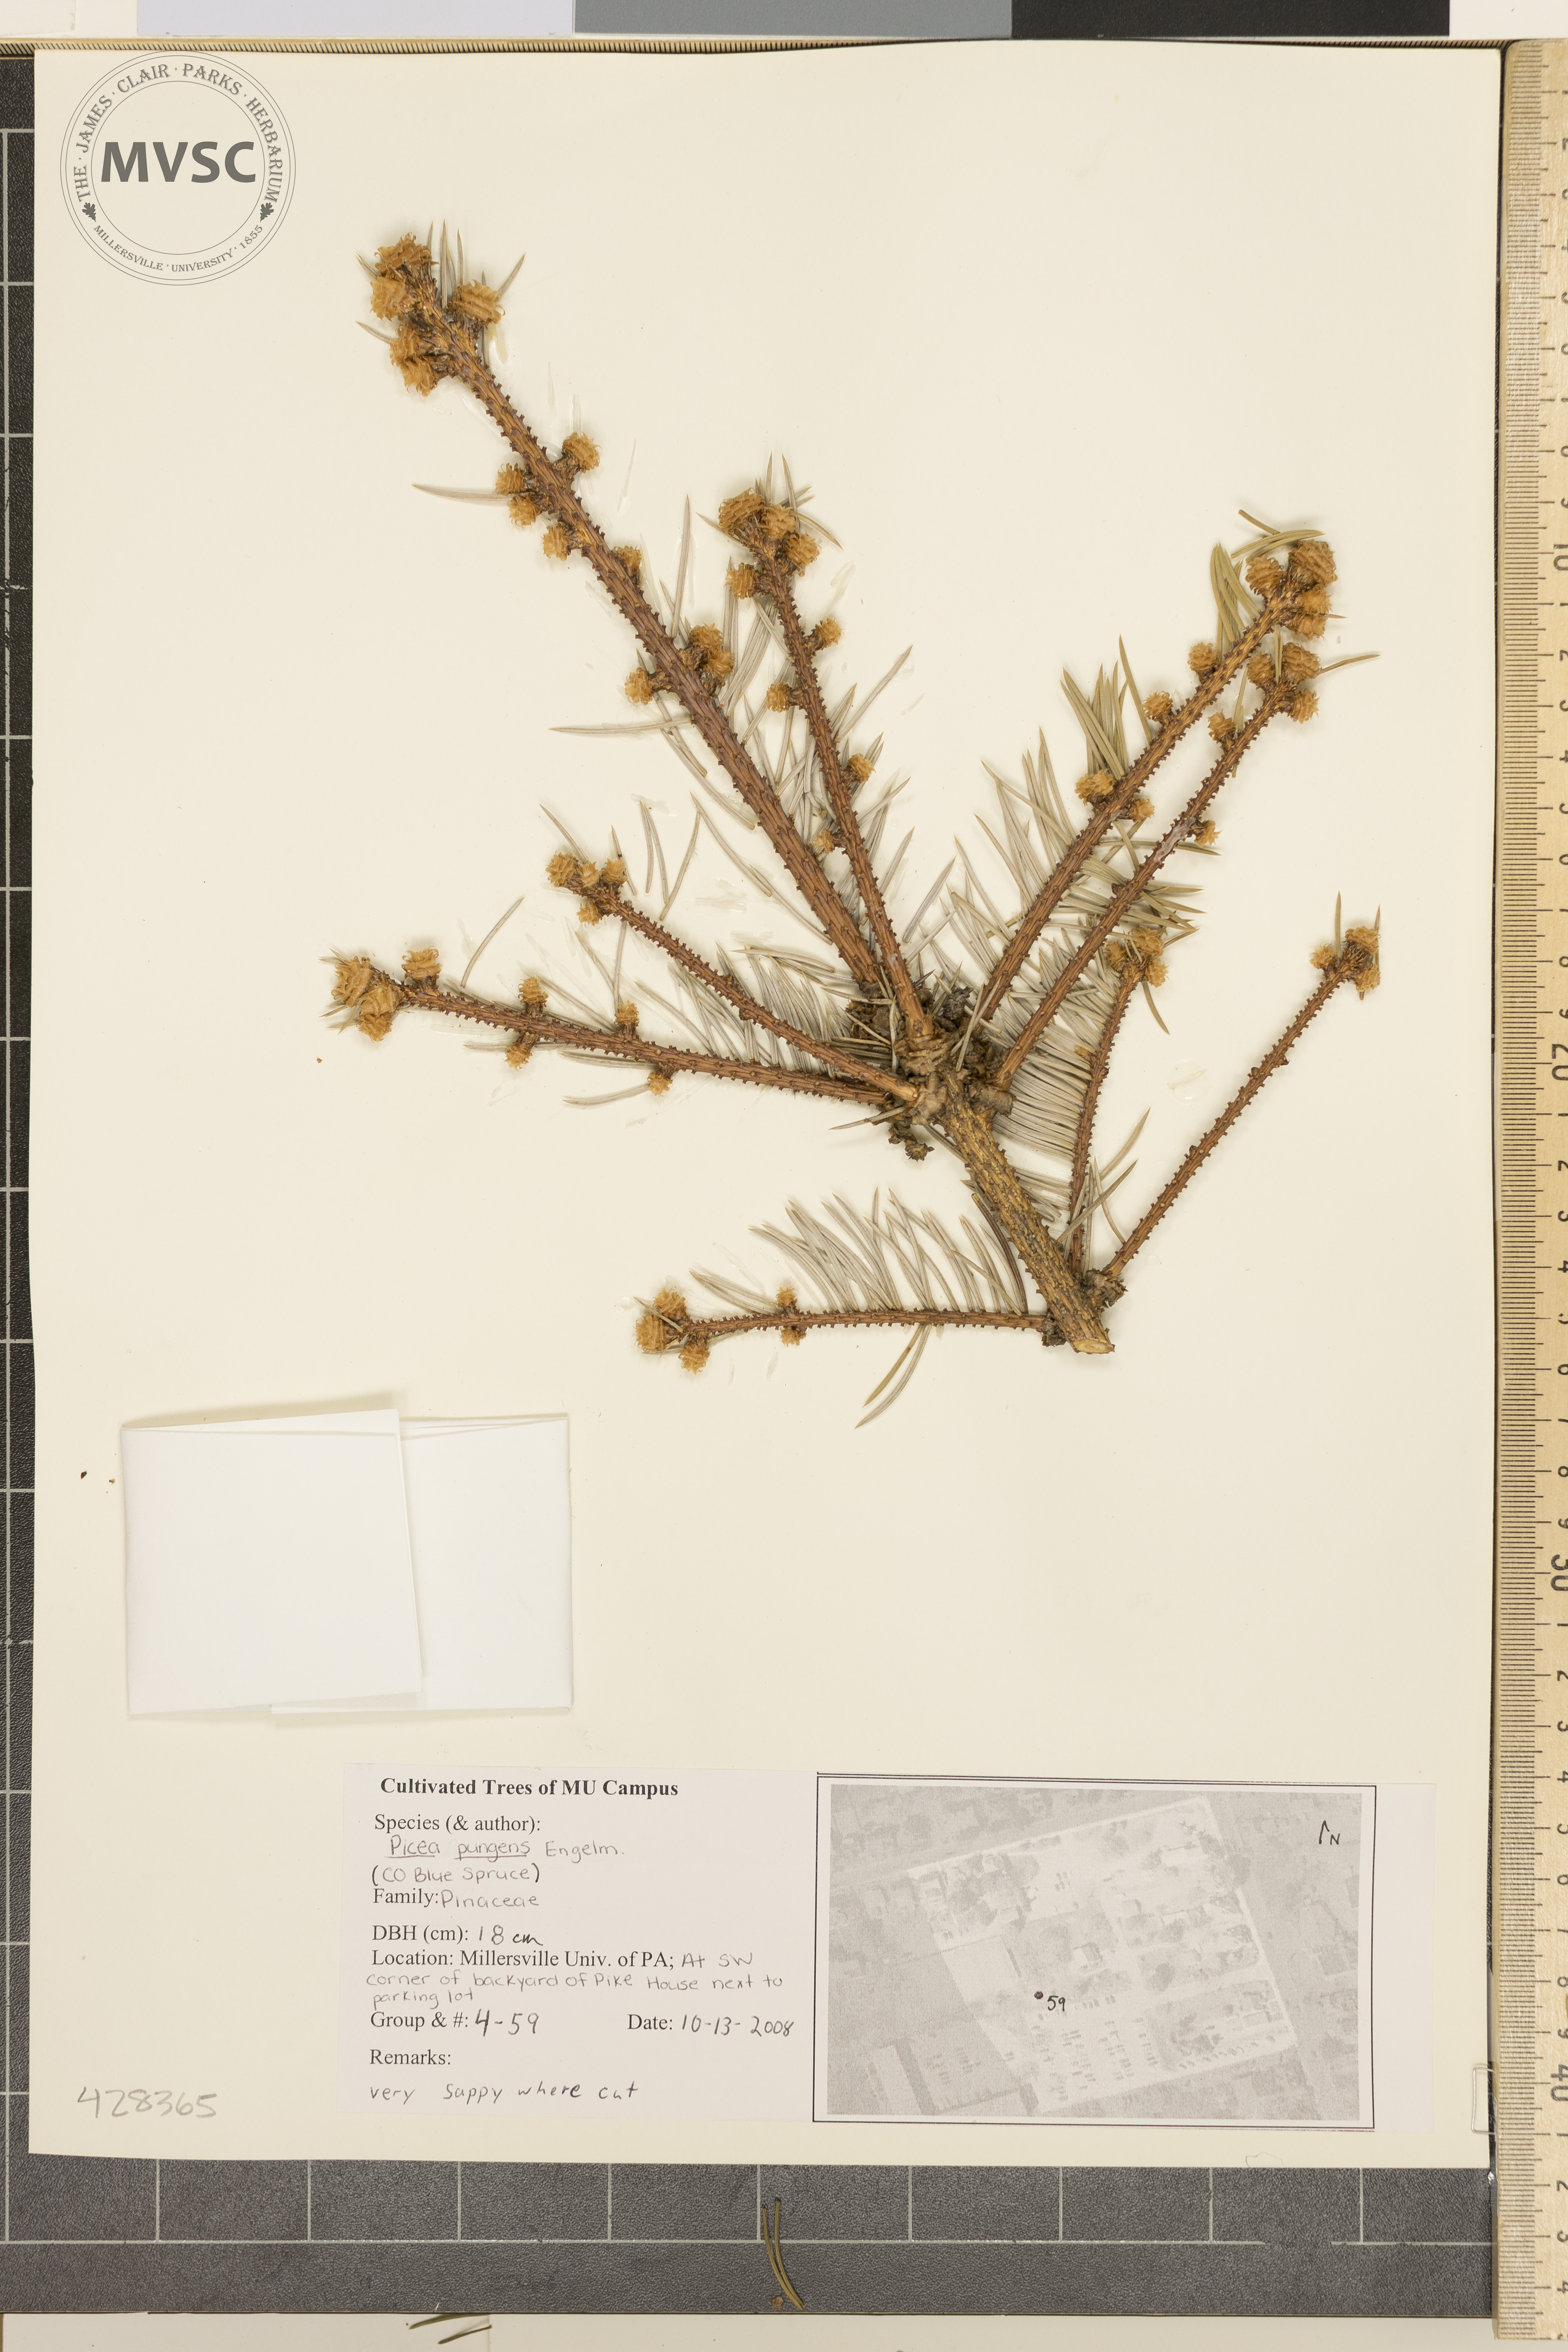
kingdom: Plantae
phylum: Tracheophyta
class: Pinopsida
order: Pinales
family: Pinaceae
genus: Picea
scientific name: Picea pungens
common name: Colorado Blue Spruce
